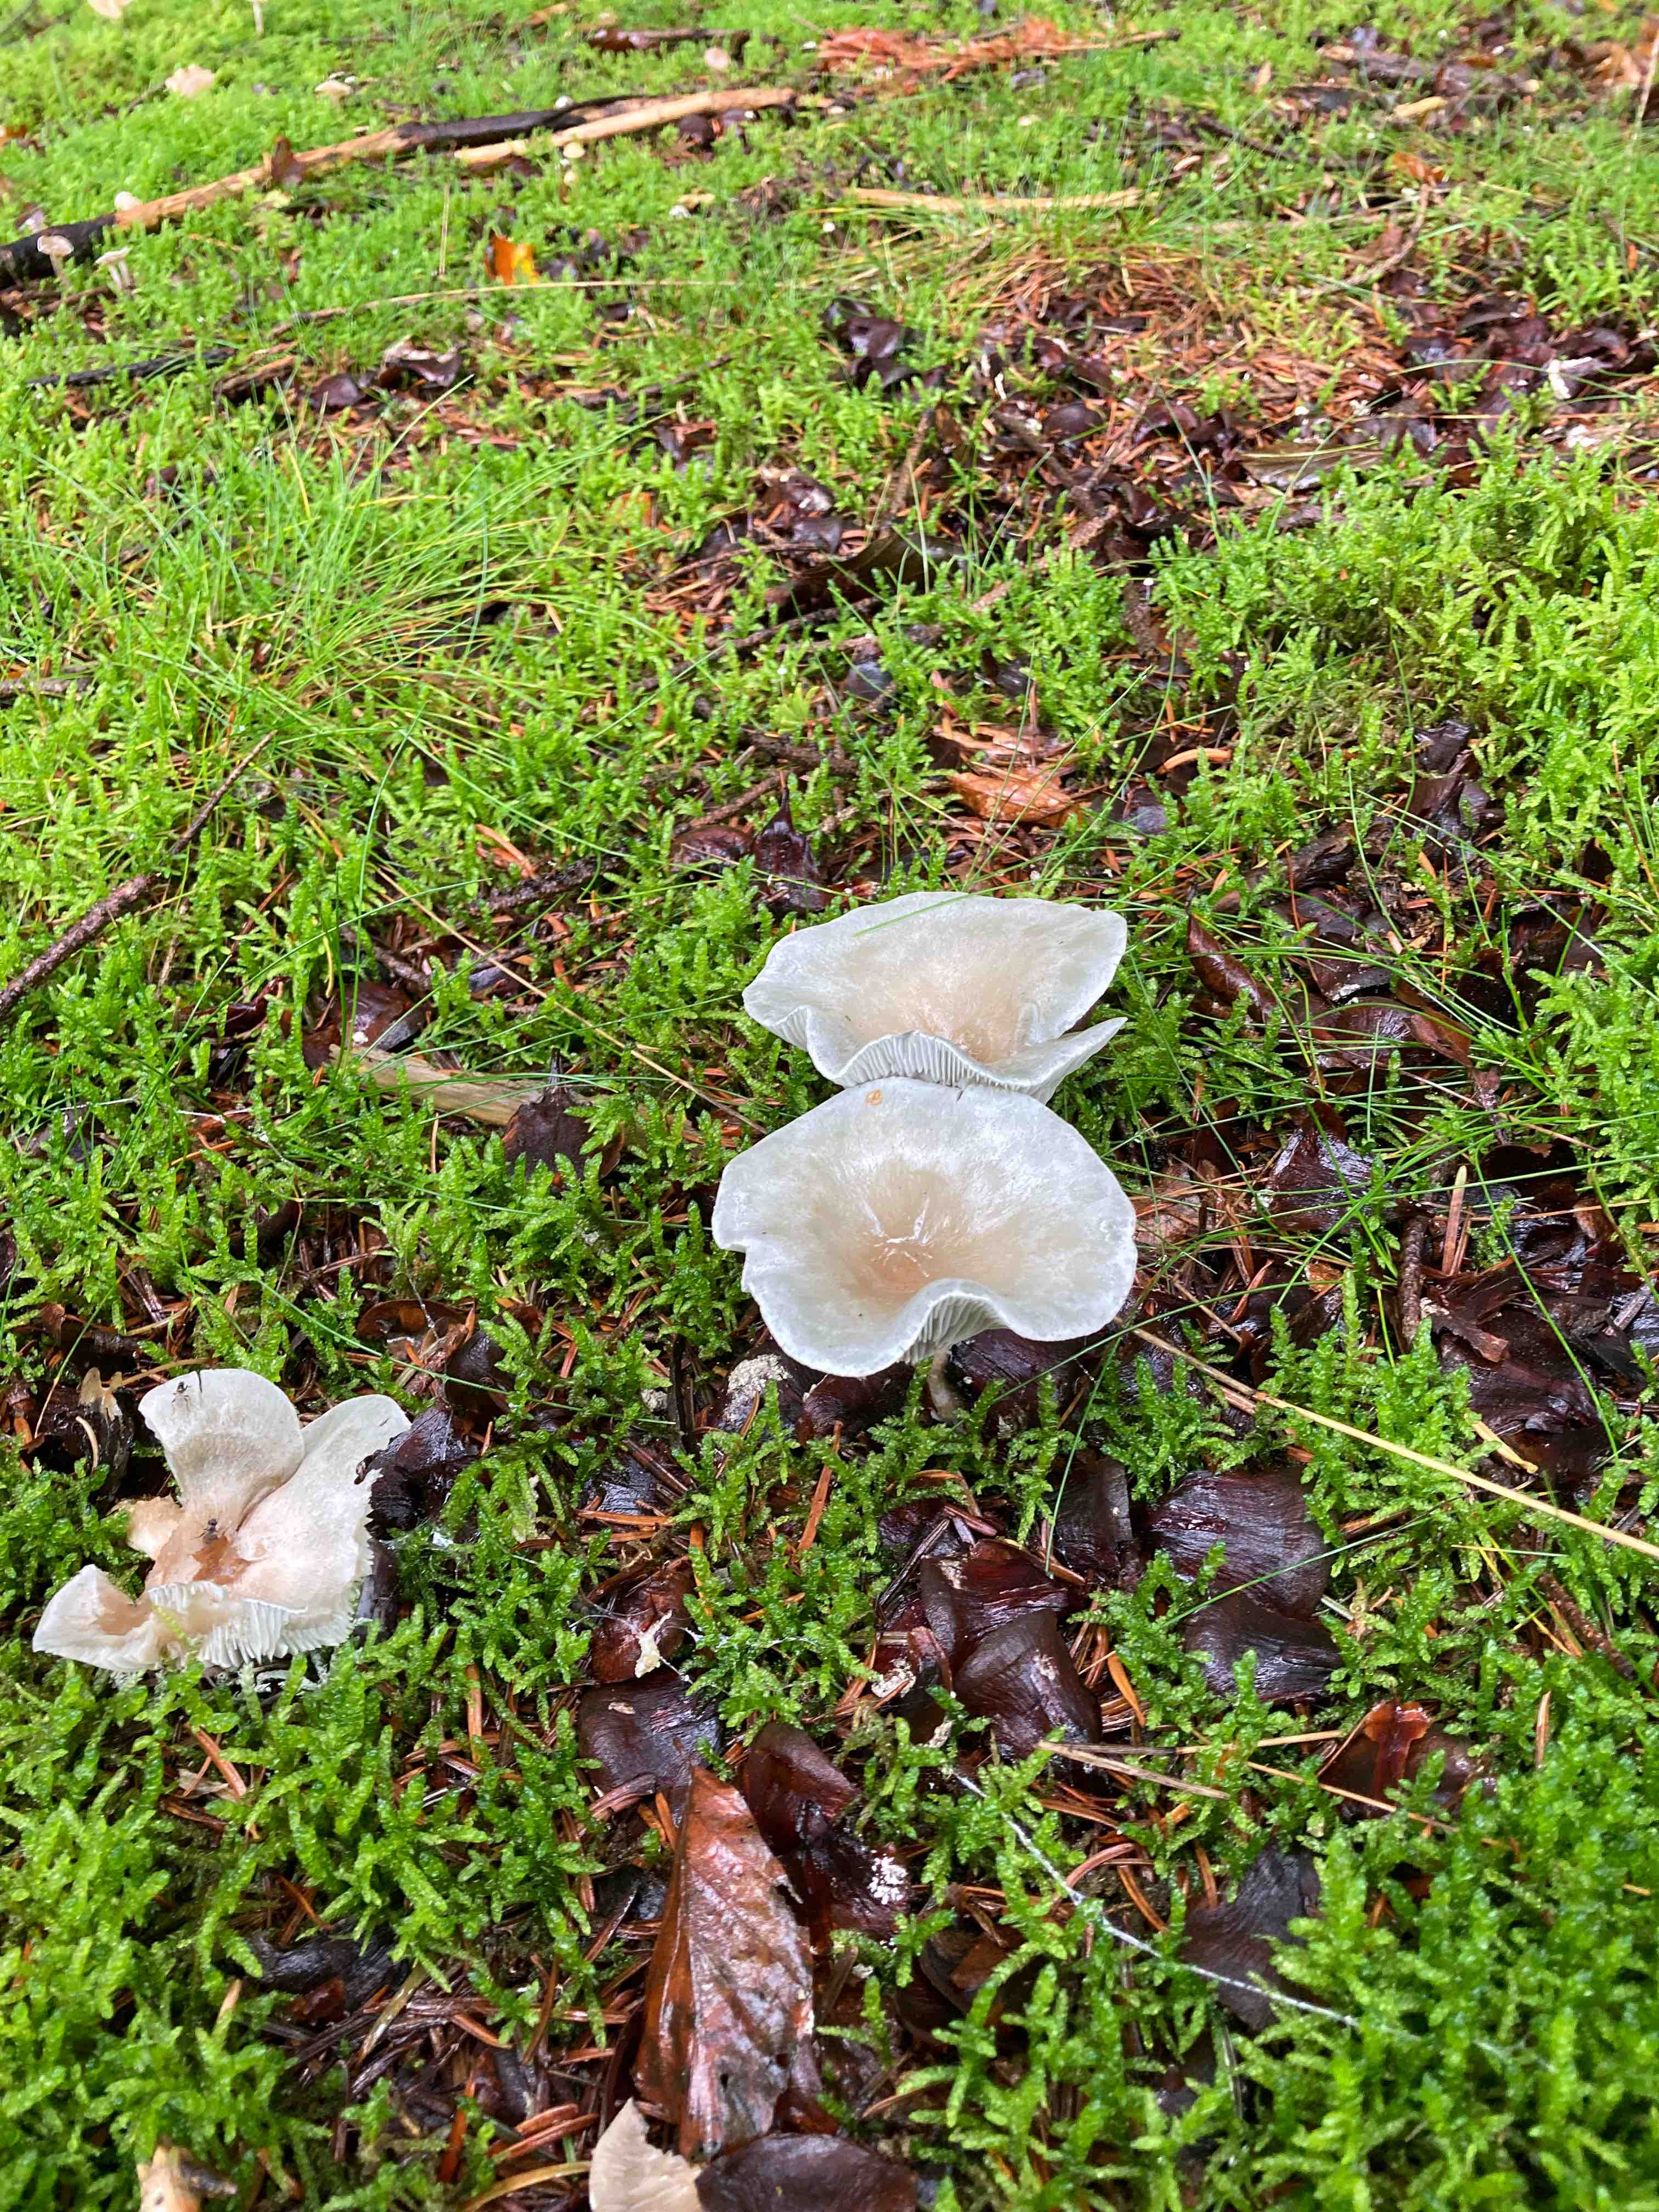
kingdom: Fungi
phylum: Basidiomycota
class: Agaricomycetes
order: Agaricales
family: Tricholomataceae
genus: Clitocybe
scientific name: Clitocybe odora
